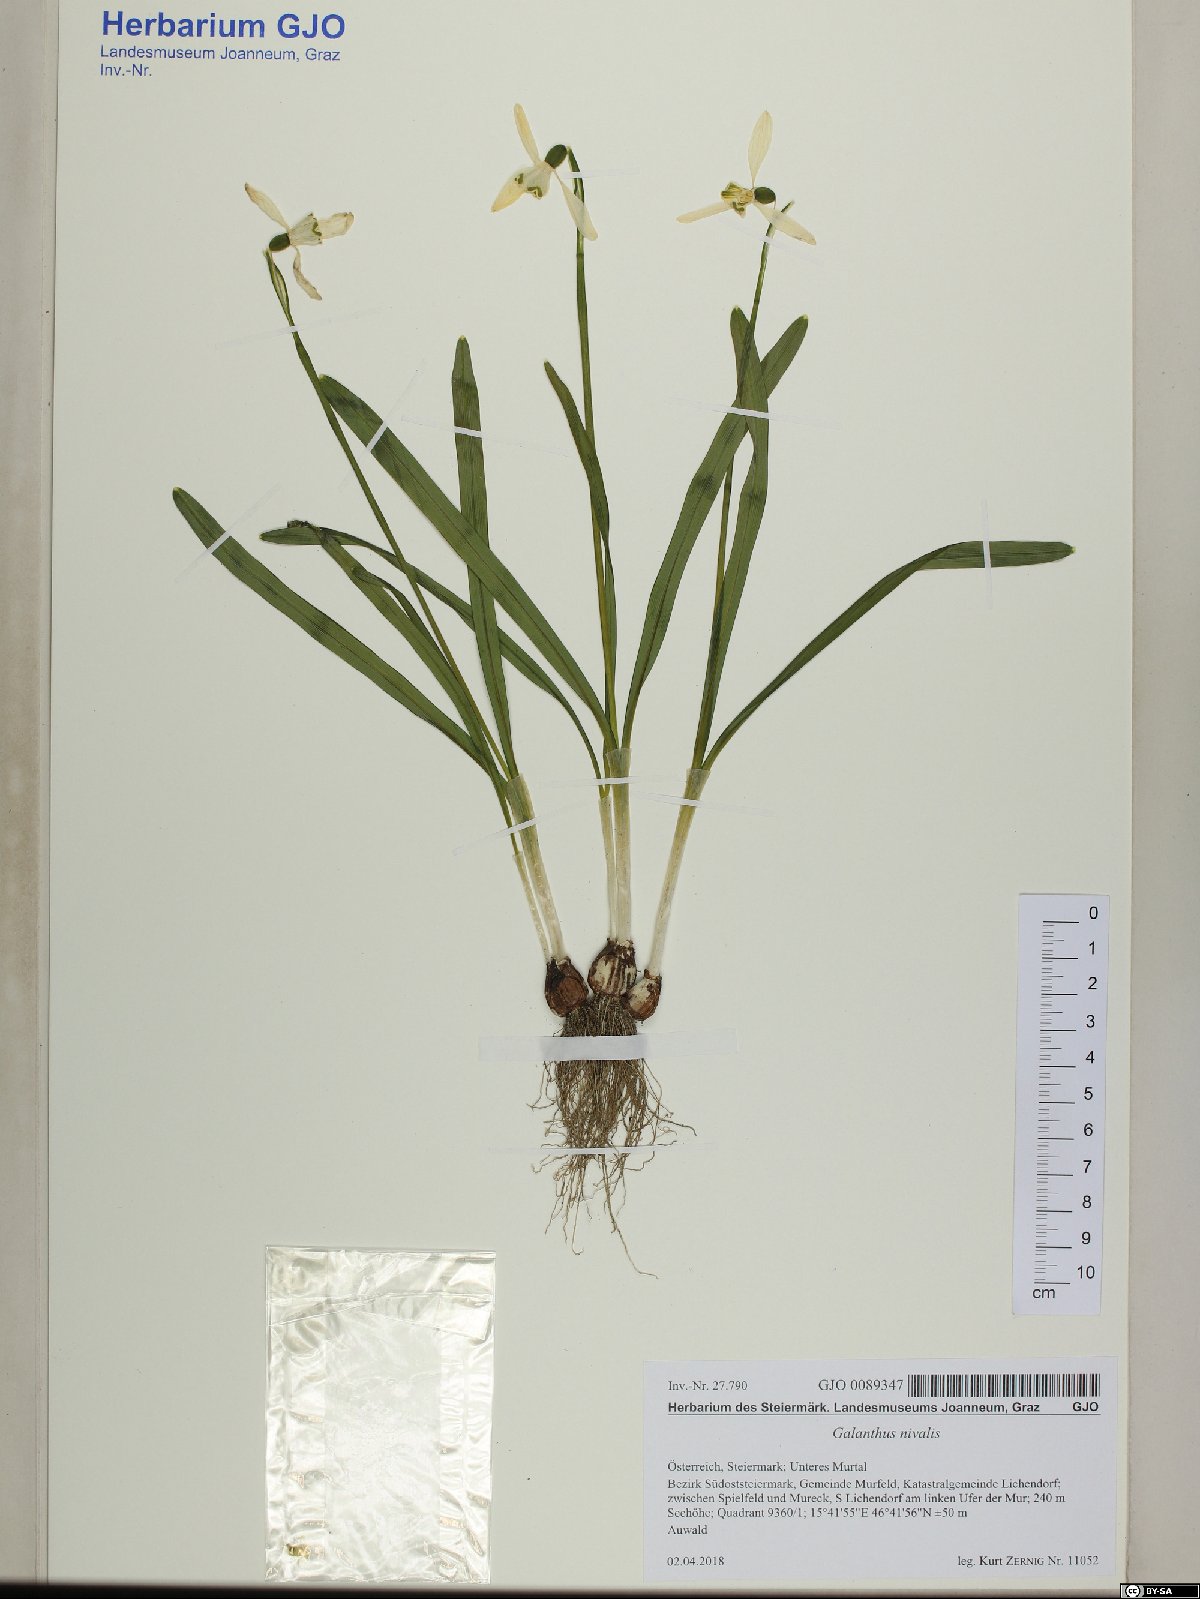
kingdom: Plantae
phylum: Tracheophyta
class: Liliopsida
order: Asparagales
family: Amaryllidaceae
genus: Galanthus
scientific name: Galanthus nivalis
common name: Snowdrop
